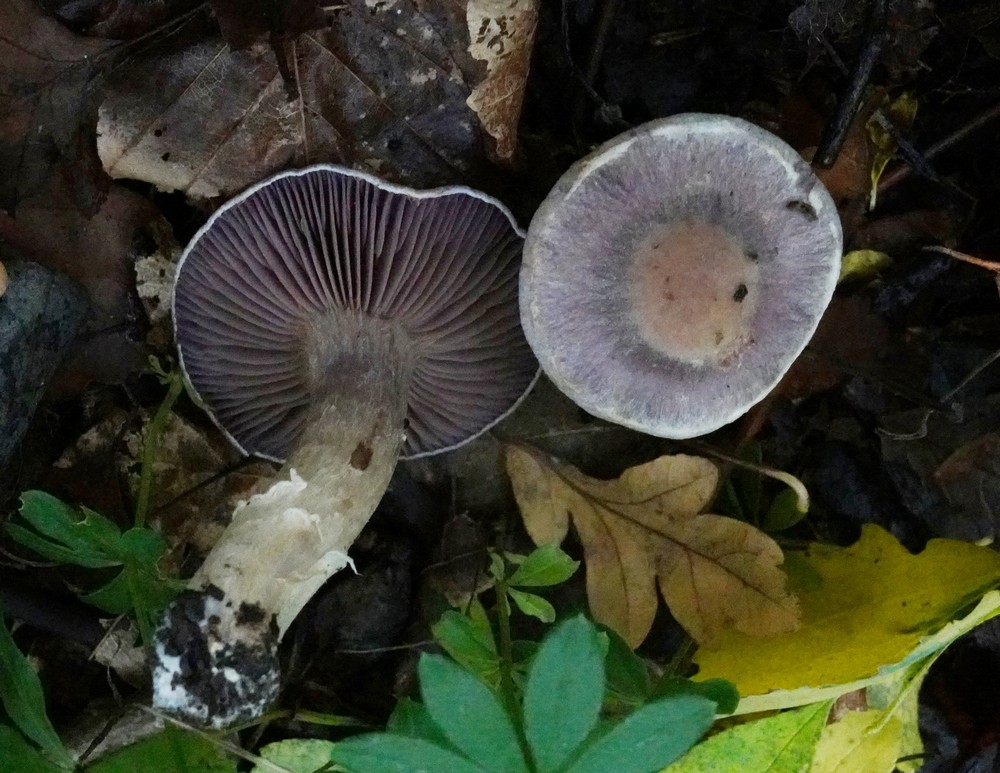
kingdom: Fungi
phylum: Basidiomycota
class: Agaricomycetes
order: Agaricales
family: Cortinariaceae
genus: Cortinarius
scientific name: Cortinarius
